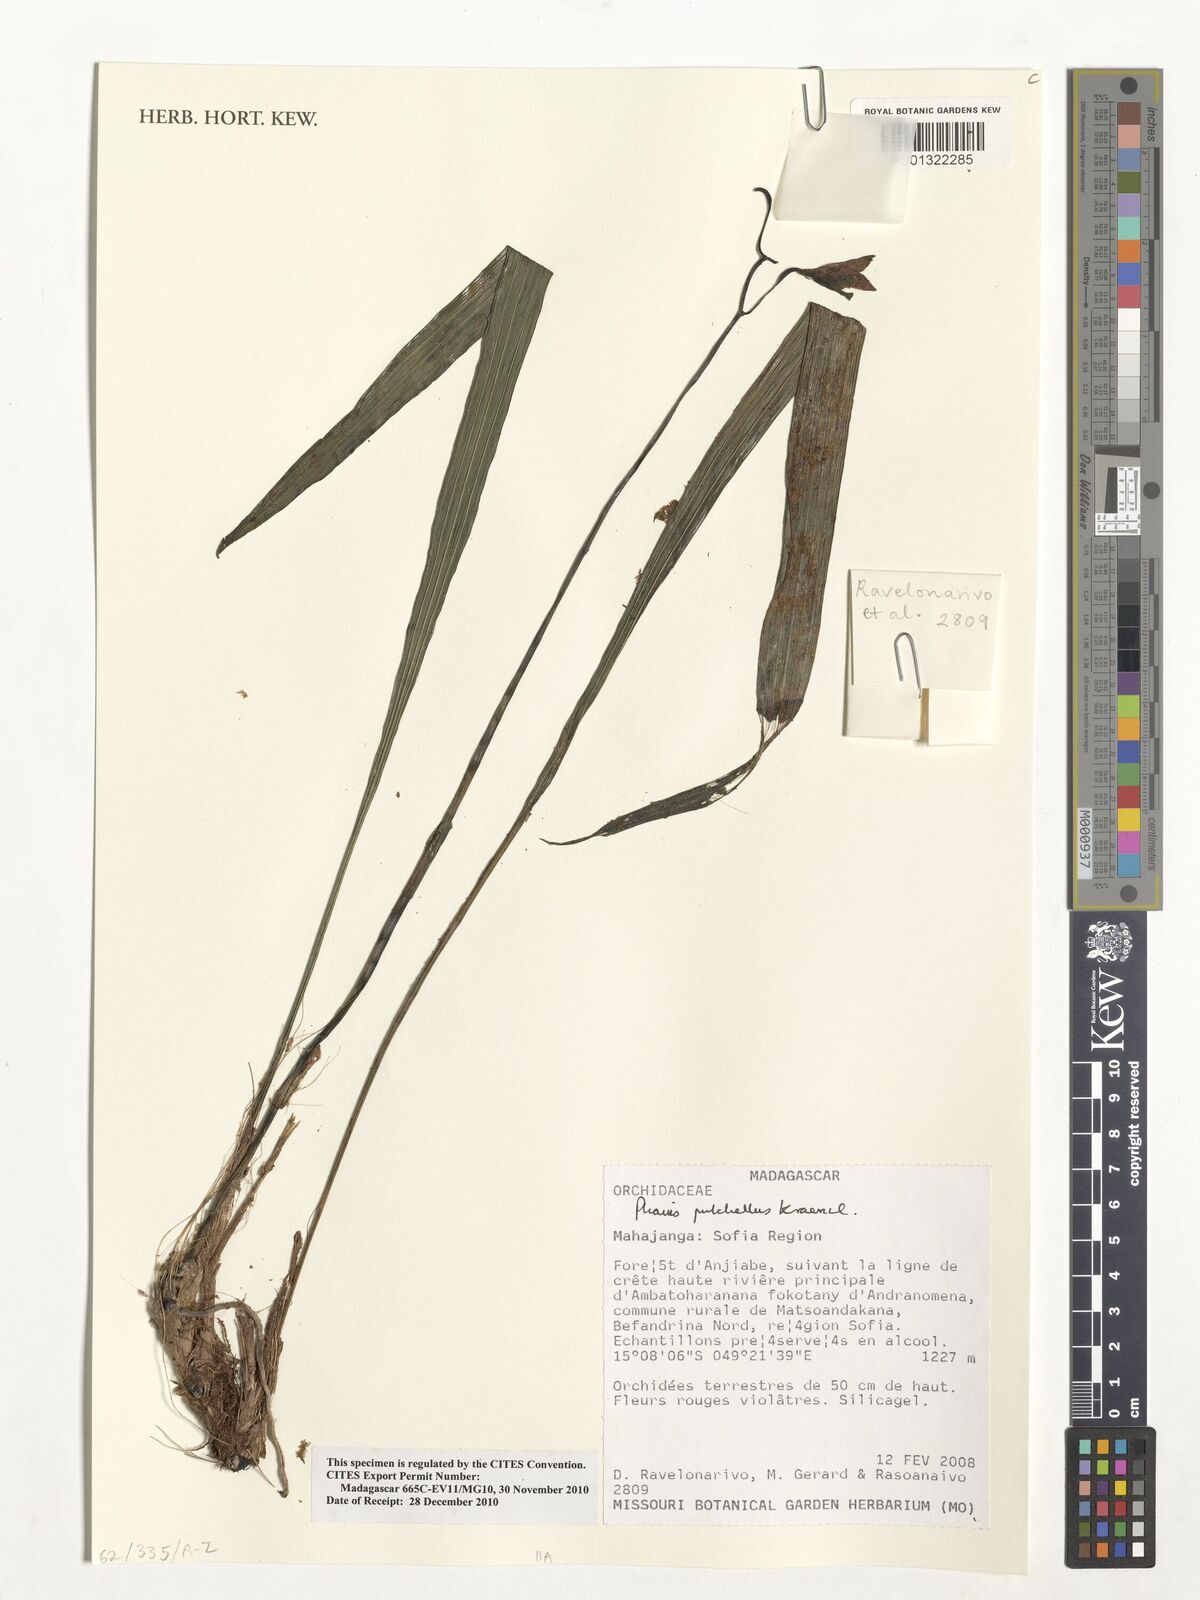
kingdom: Plantae
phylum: Tracheophyta
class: Liliopsida
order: Asparagales
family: Orchidaceae
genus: Calanthe
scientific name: Calanthe pulchella
